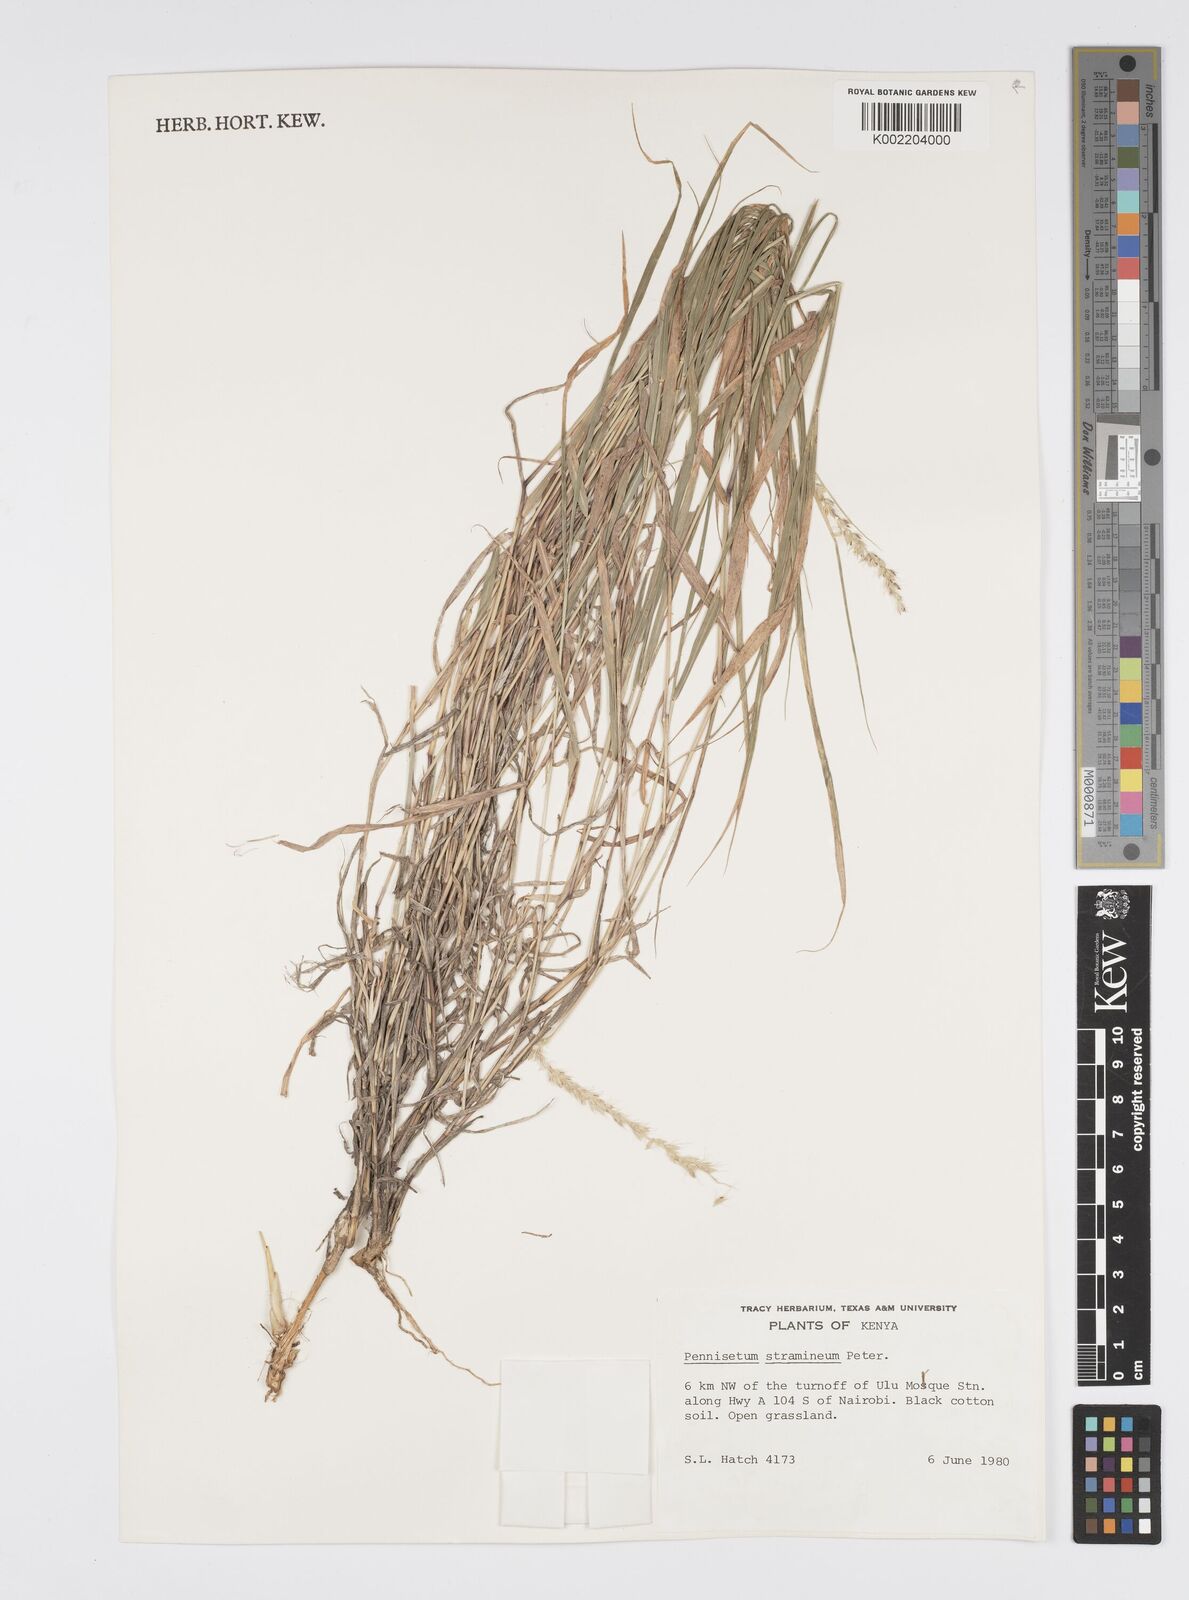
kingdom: Plantae
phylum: Tracheophyta
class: Liliopsida
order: Poales
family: Poaceae
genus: Cenchrus
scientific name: Cenchrus stramineus
